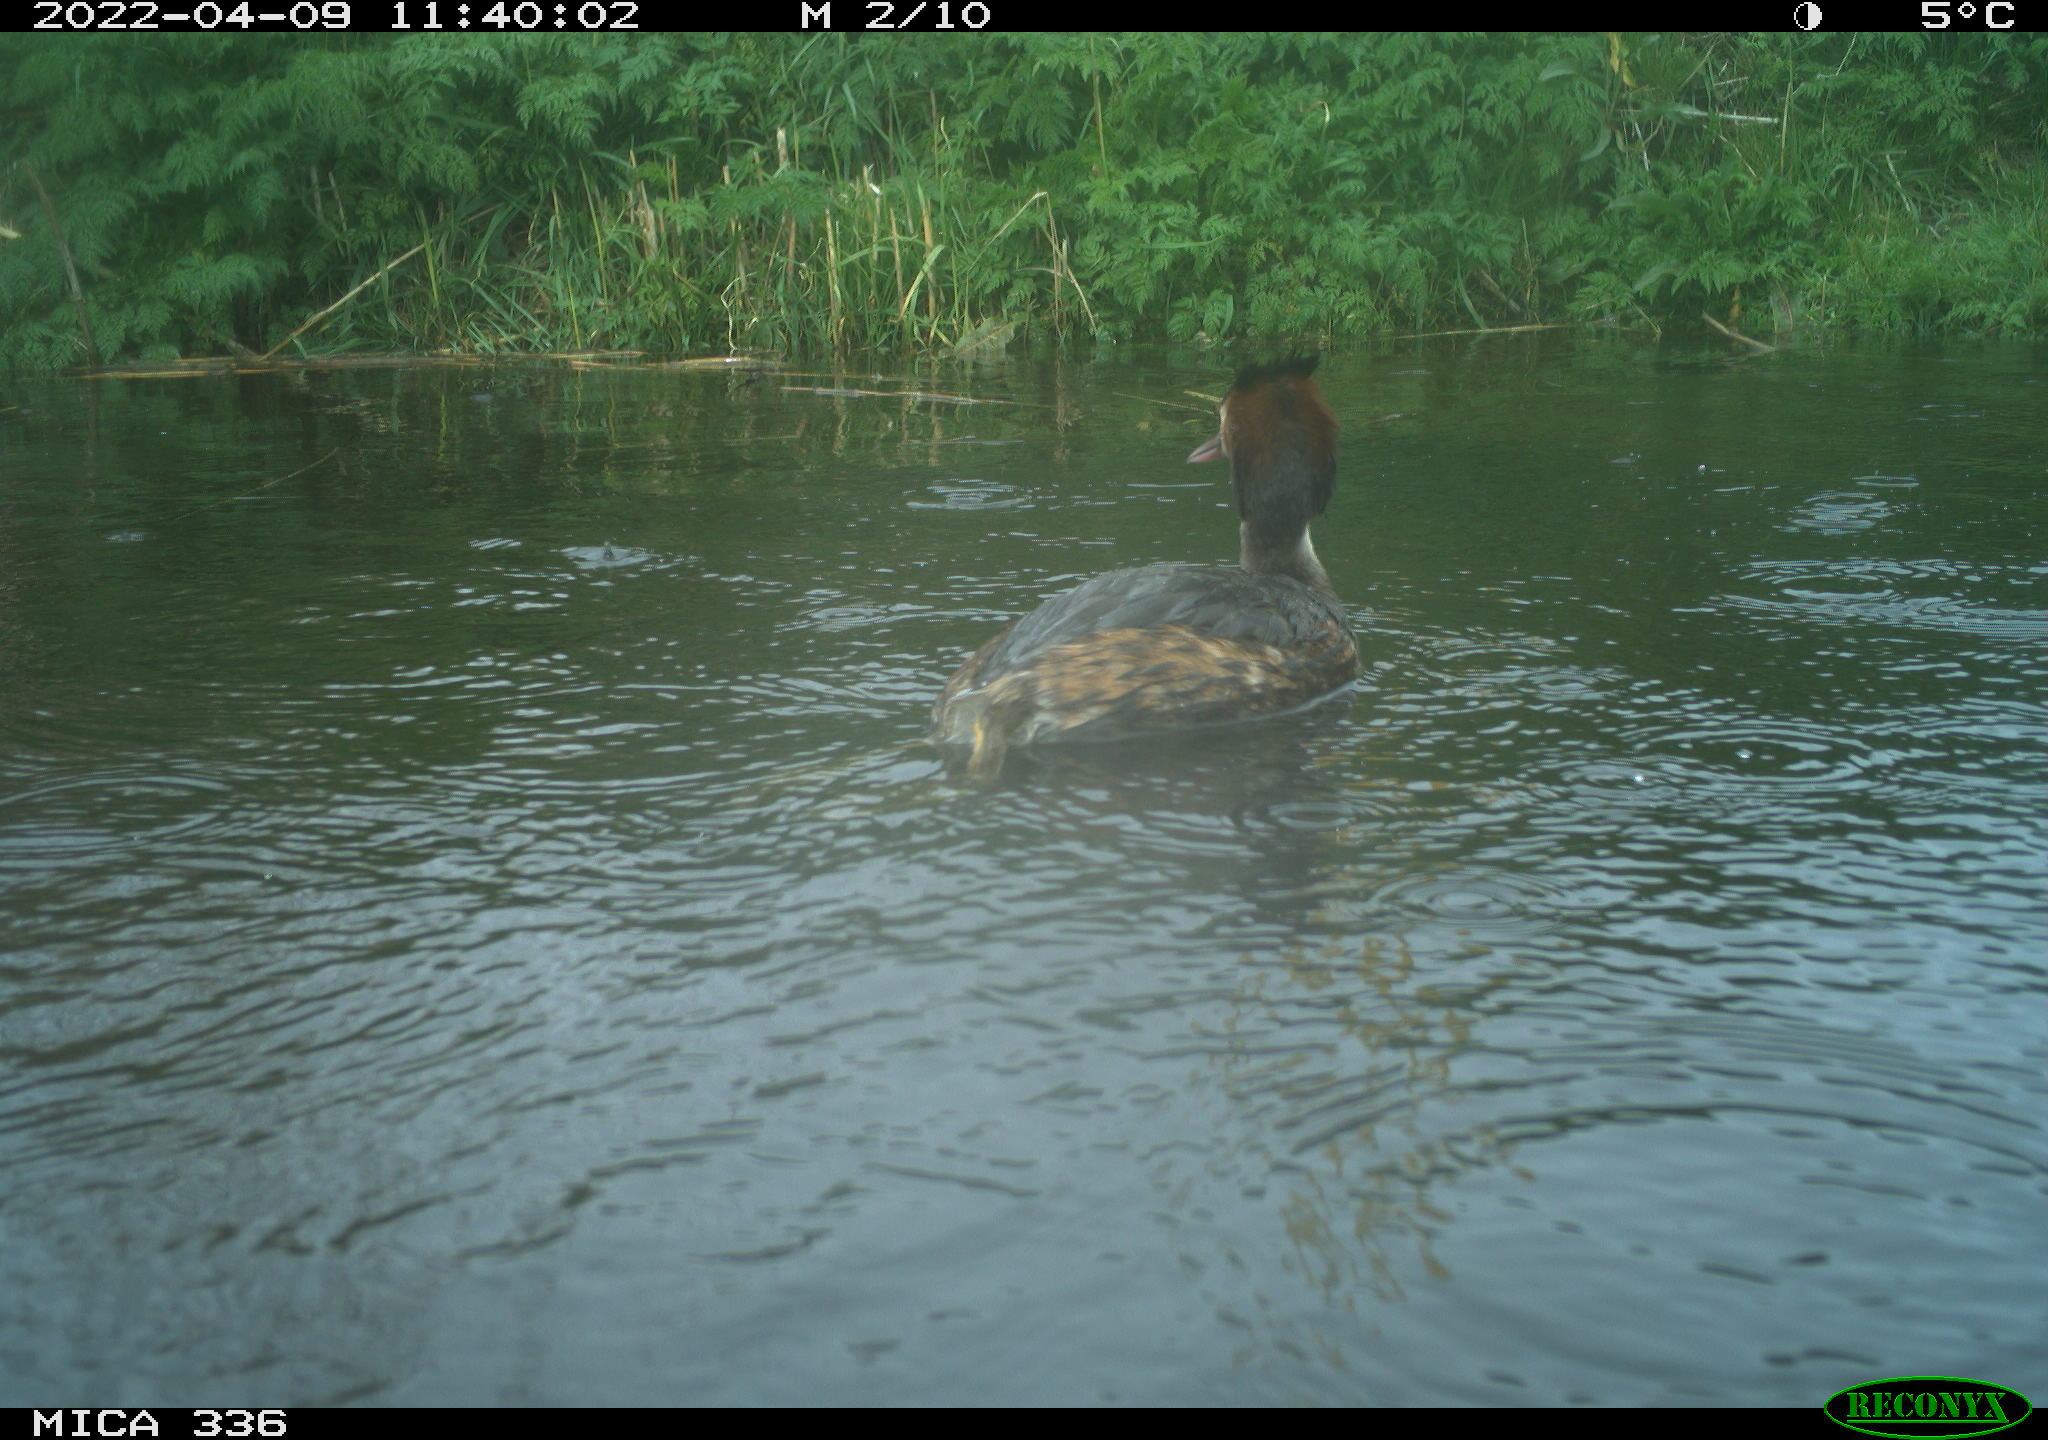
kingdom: Animalia
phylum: Chordata
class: Aves
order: Podicipediformes
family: Podicipedidae
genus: Podiceps
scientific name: Podiceps cristatus
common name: Great crested grebe
